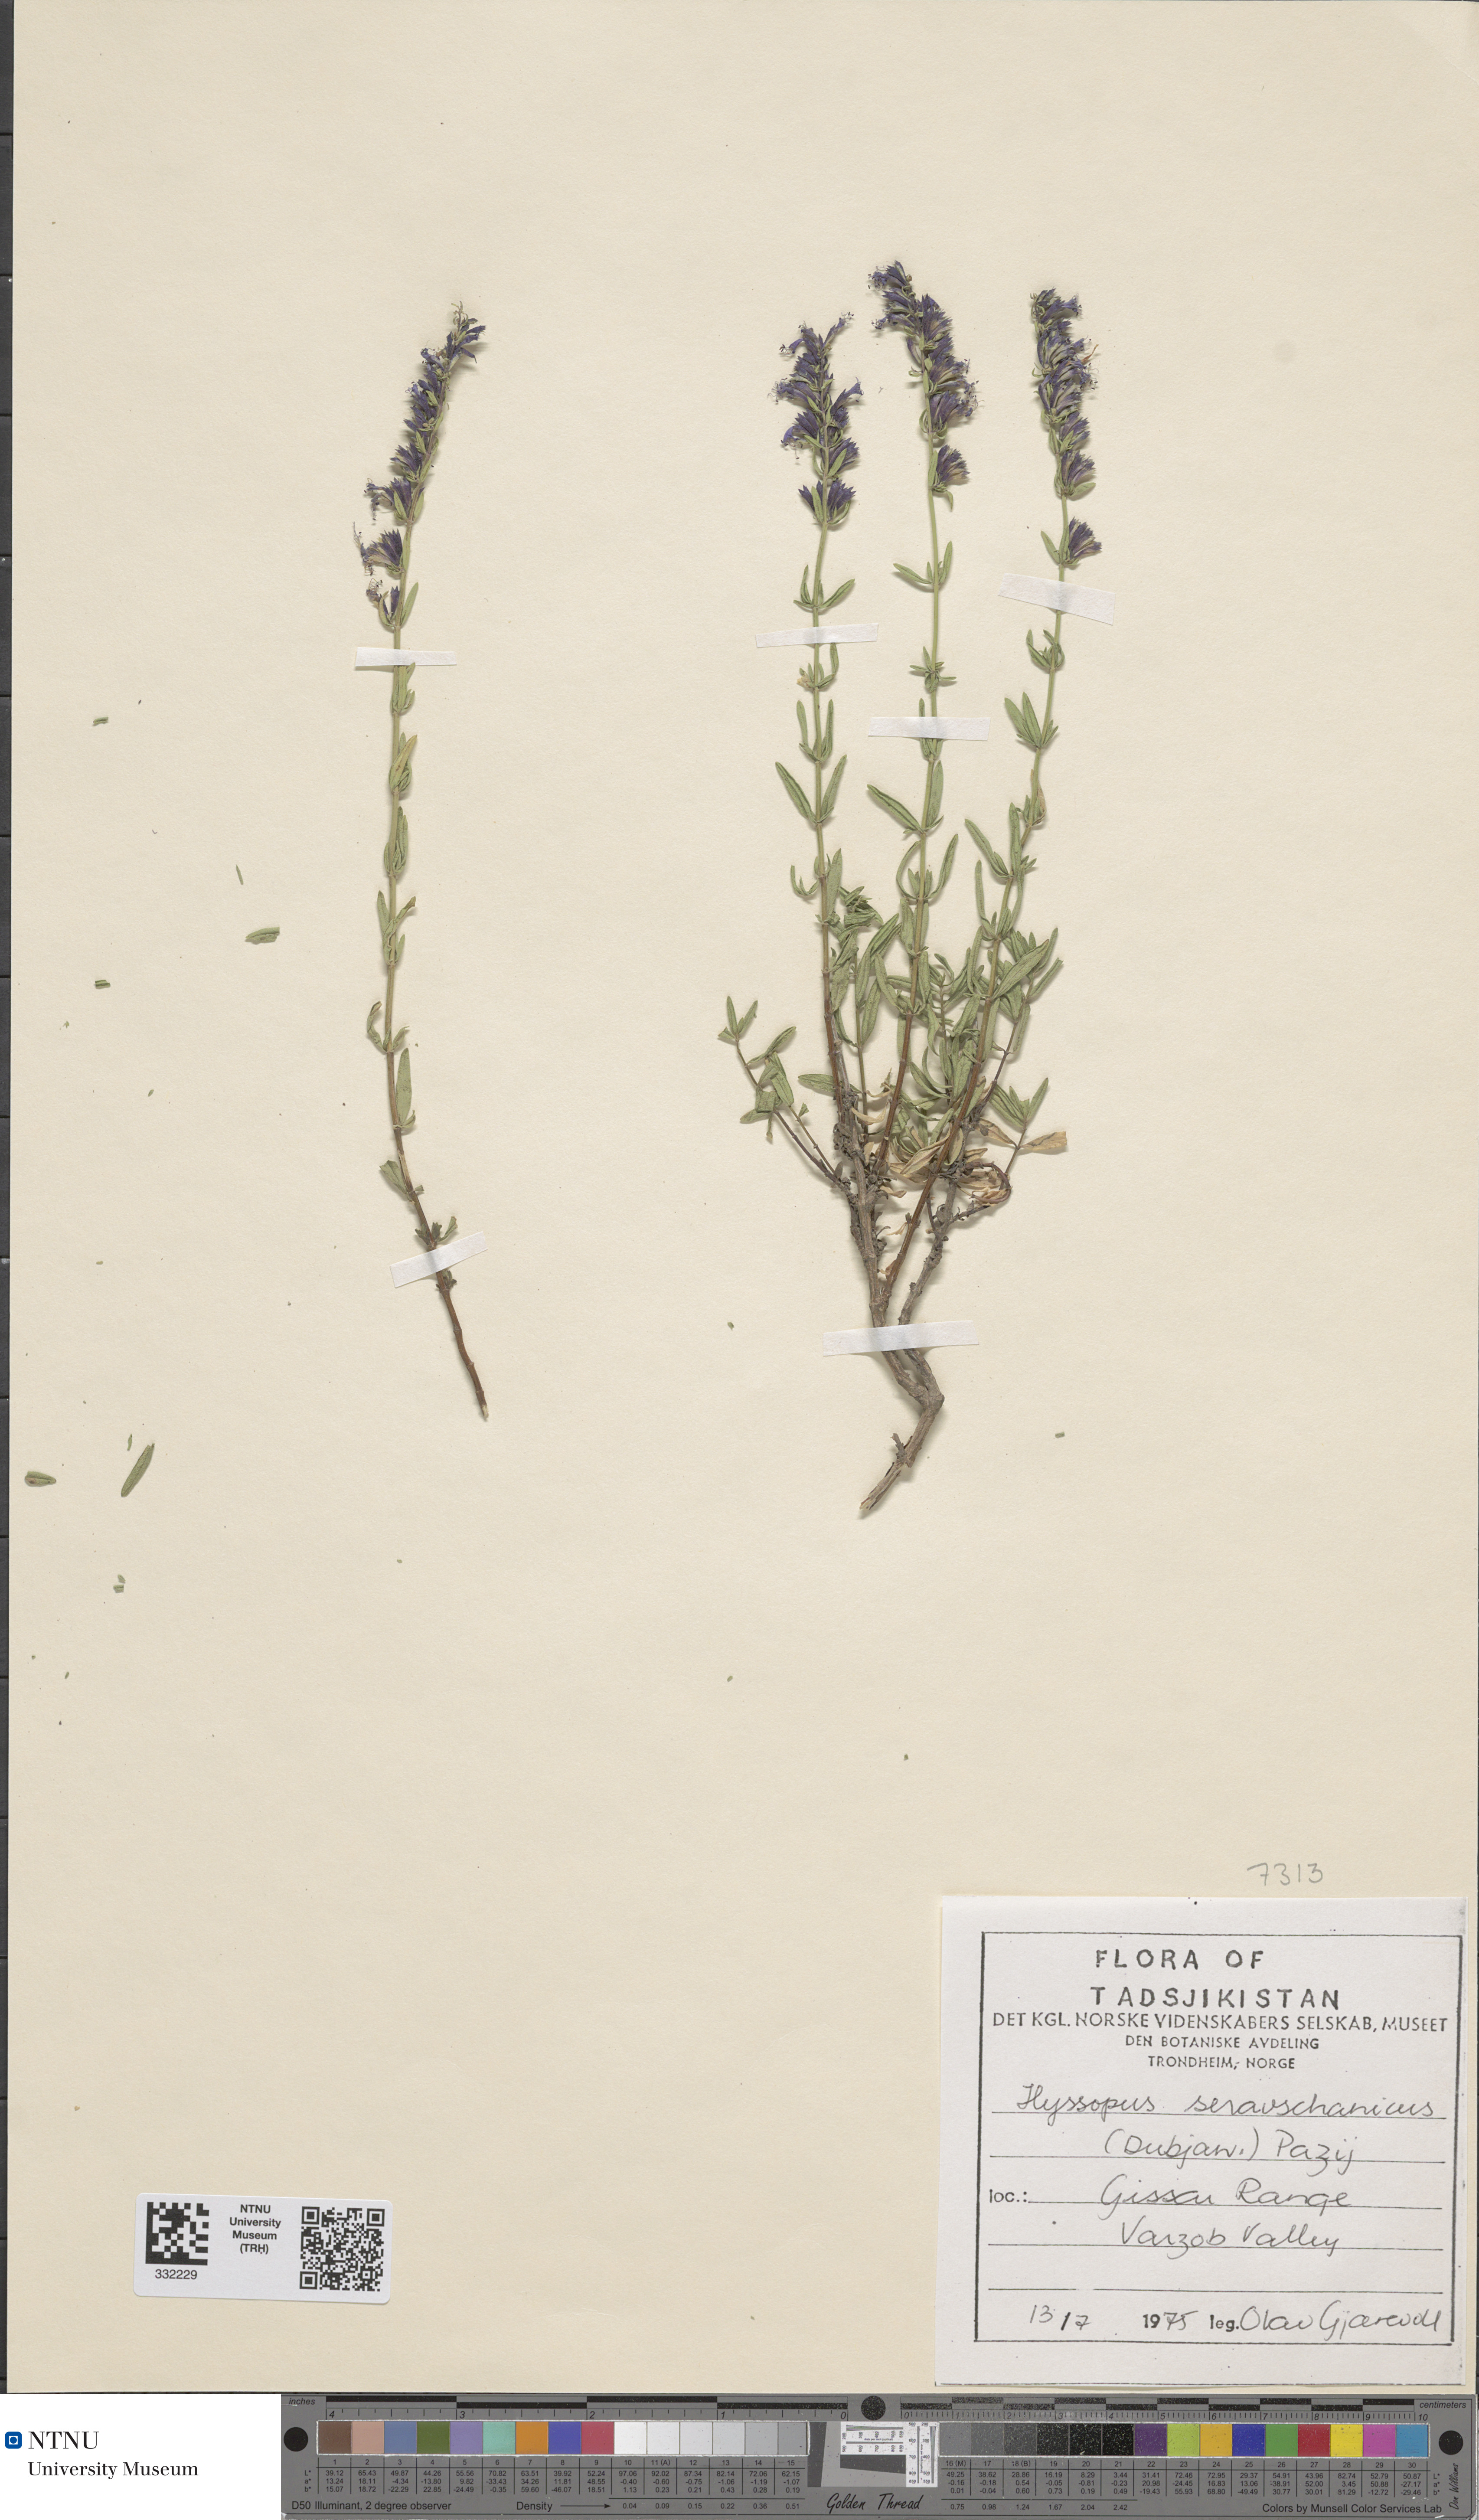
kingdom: Plantae
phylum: Tracheophyta
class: Magnoliopsida
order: Lamiales
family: Lamiaceae
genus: Hyssopus
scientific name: Hyssopus seravschanicus
